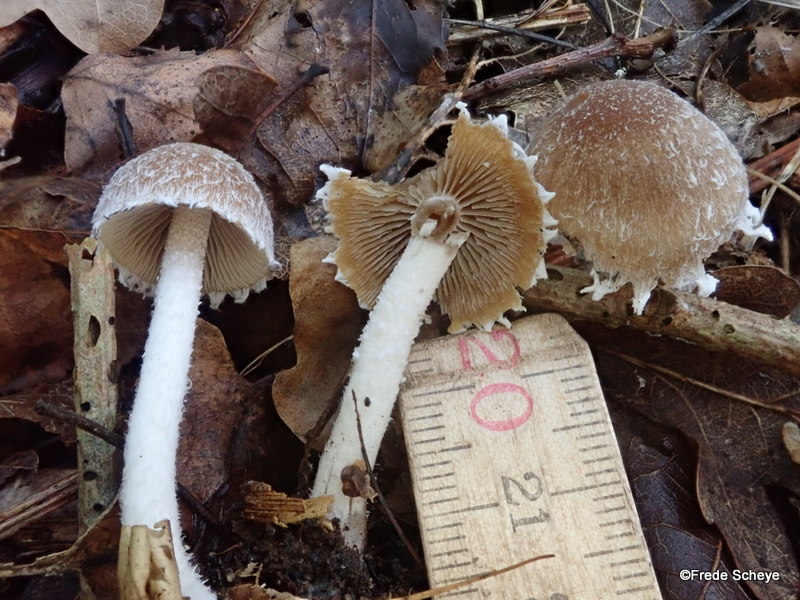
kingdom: Fungi
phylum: Basidiomycota
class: Agaricomycetes
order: Agaricales
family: Psathyrellaceae
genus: Psathyrella
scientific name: Psathyrella fibrillosa
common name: almindelig mørkhat
